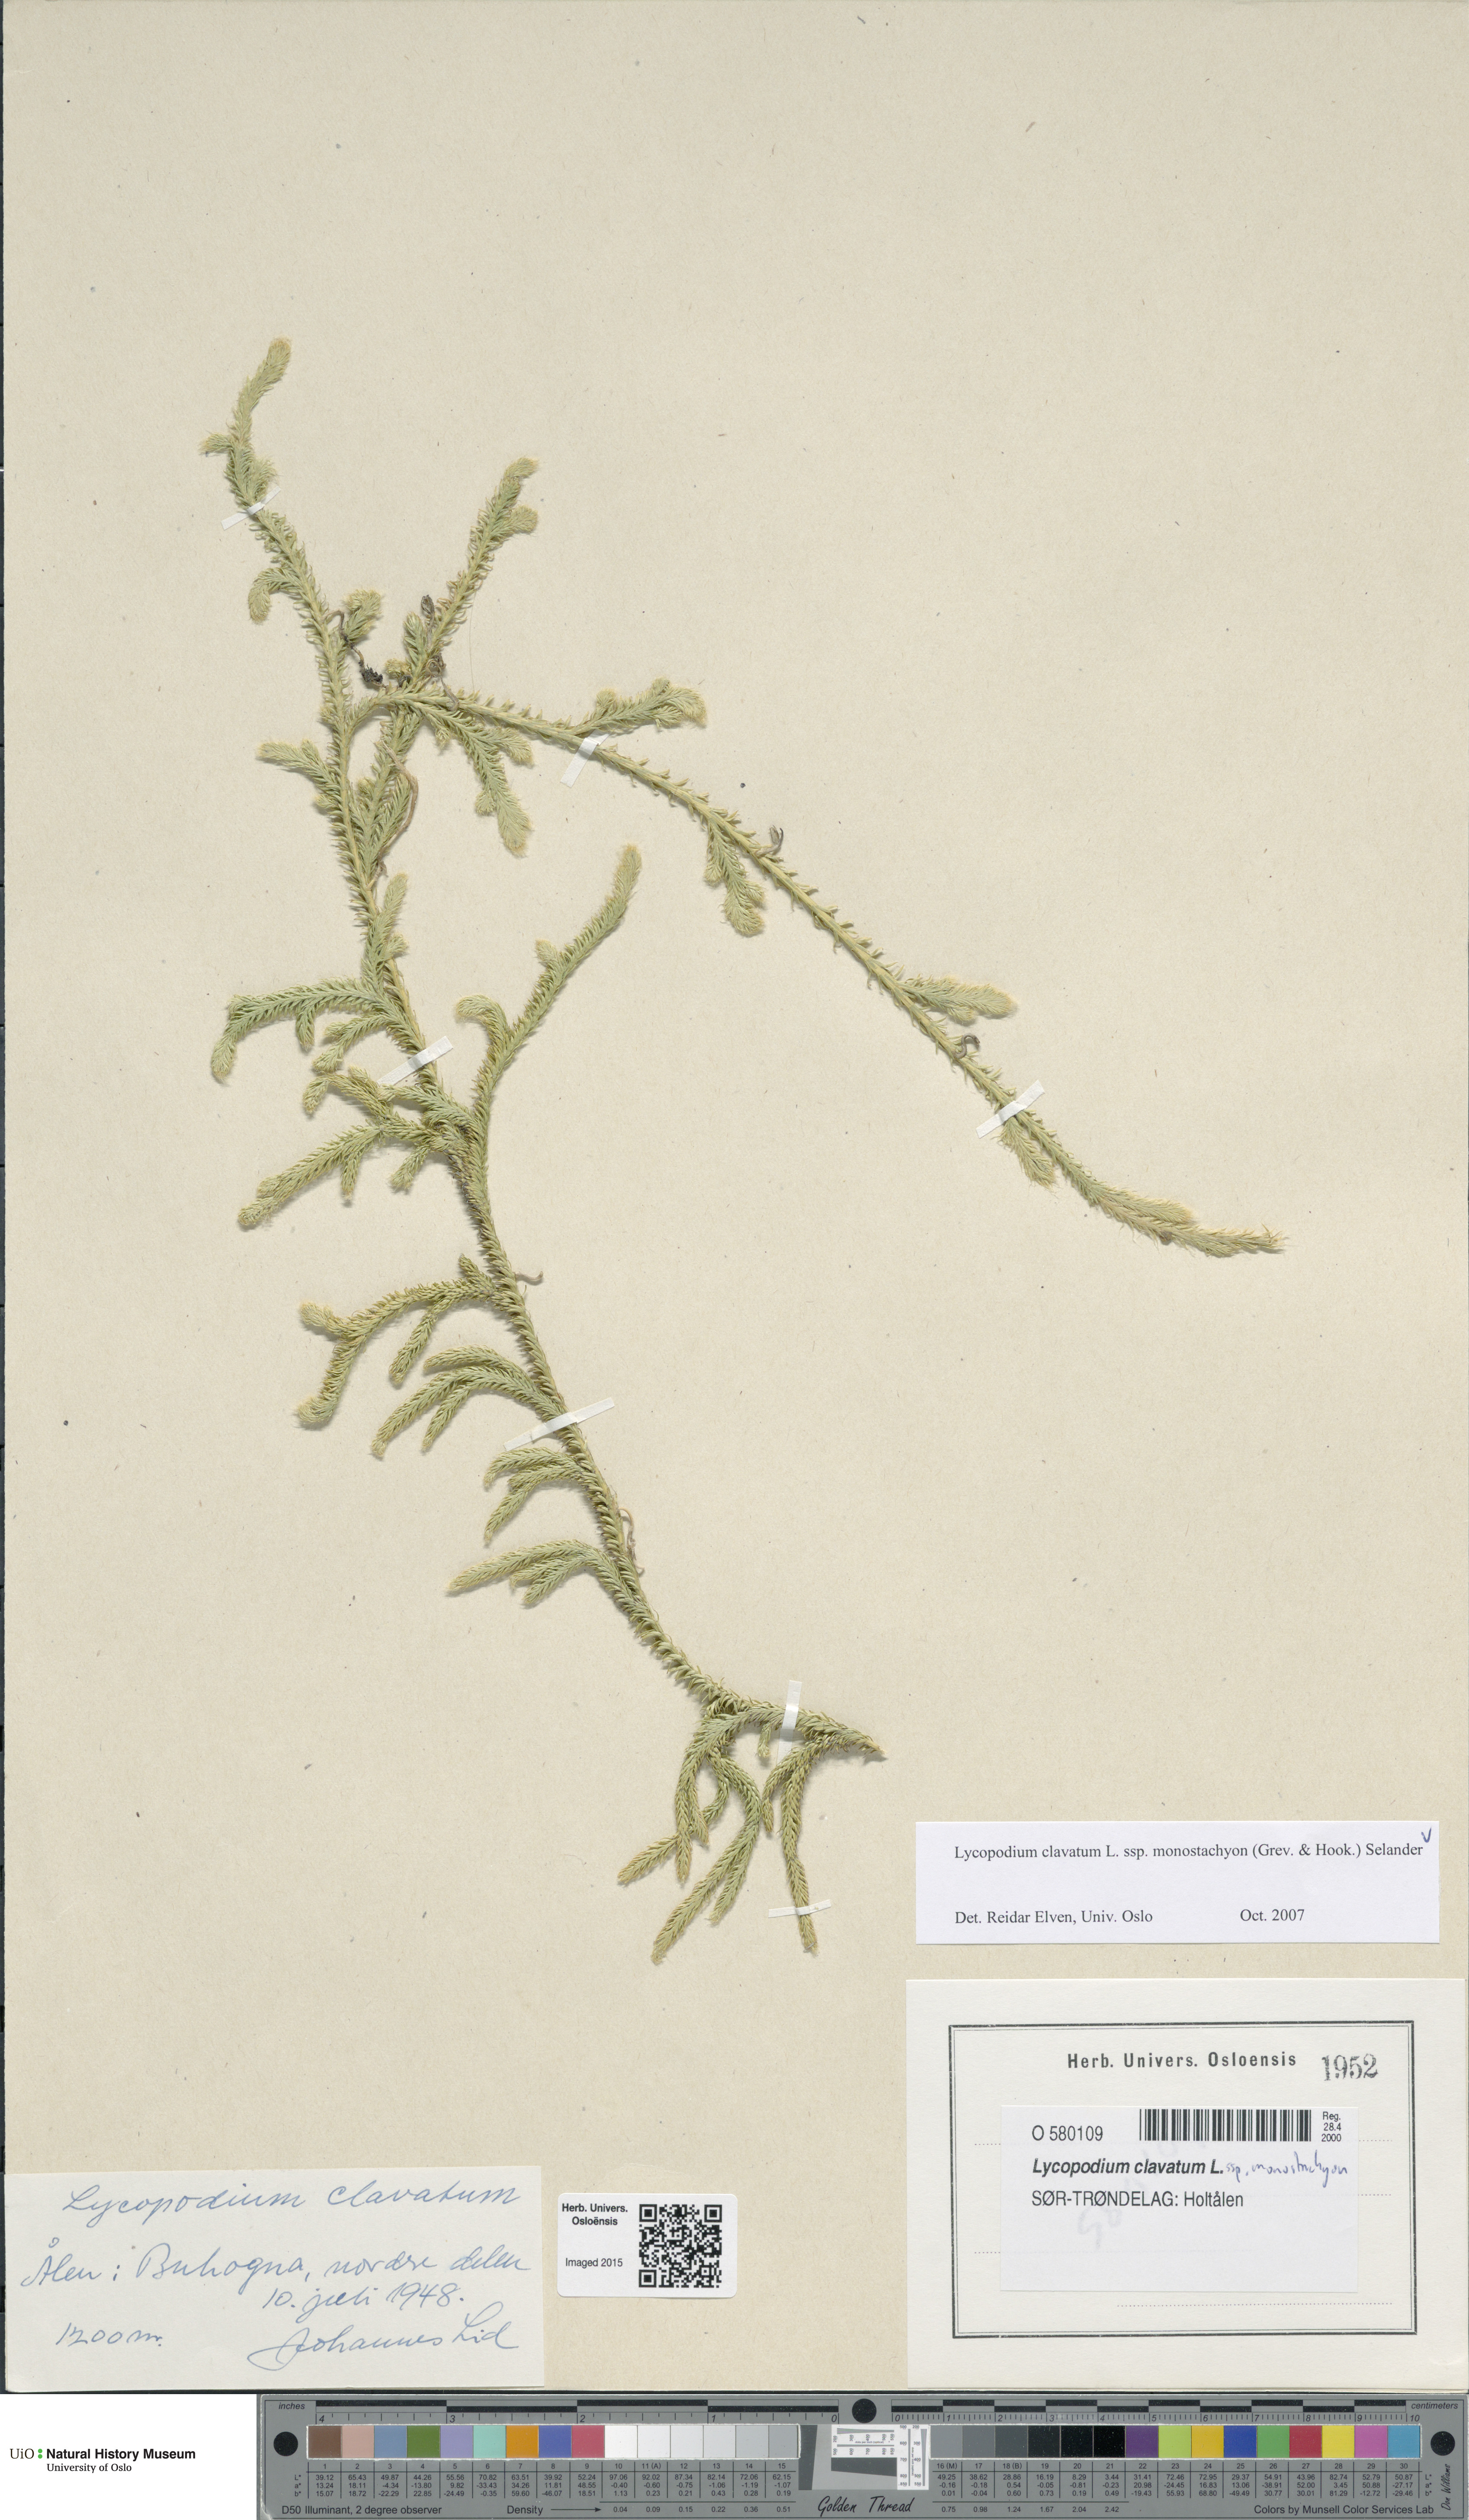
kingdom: Plantae
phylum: Tracheophyta
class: Lycopodiopsida
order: Lycopodiales
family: Lycopodiaceae
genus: Lycopodium
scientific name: Lycopodium lagopus
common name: One-cone clubmoss
